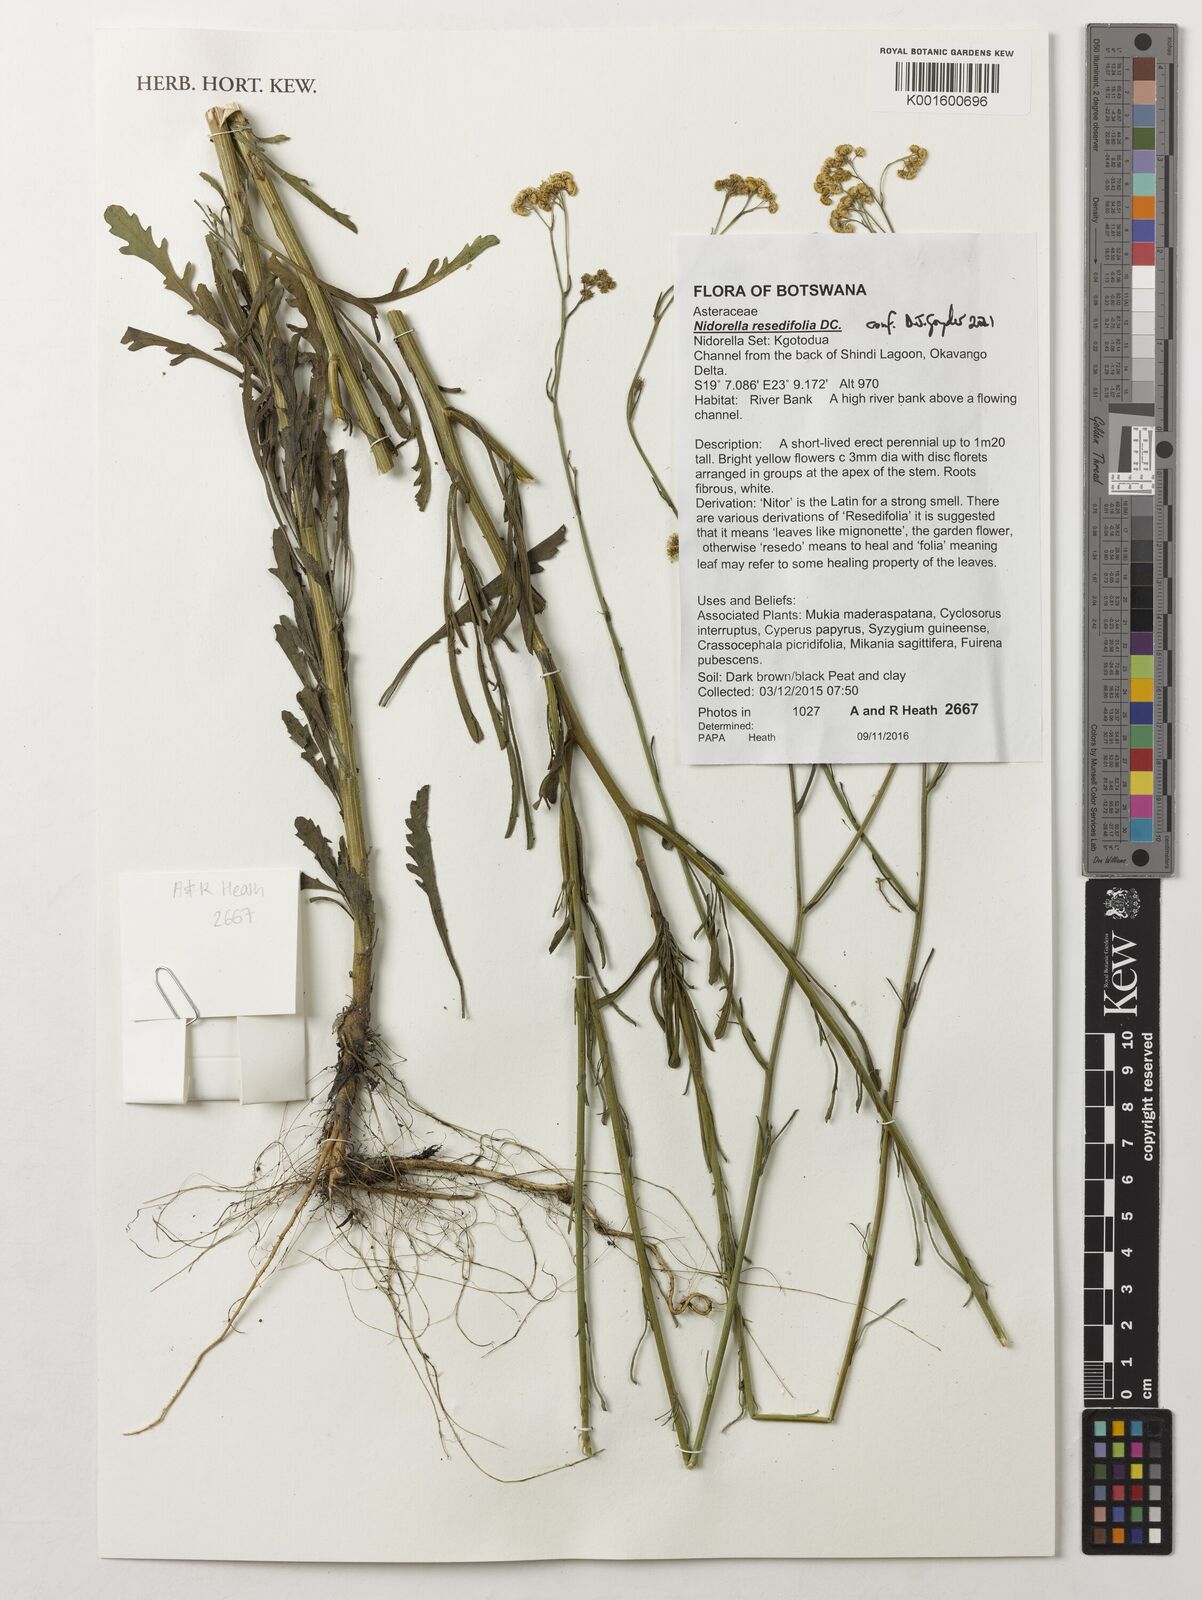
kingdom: Plantae
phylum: Tracheophyta
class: Magnoliopsida
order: Asterales
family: Asteraceae
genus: Nidorella
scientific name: Nidorella resedifolia
